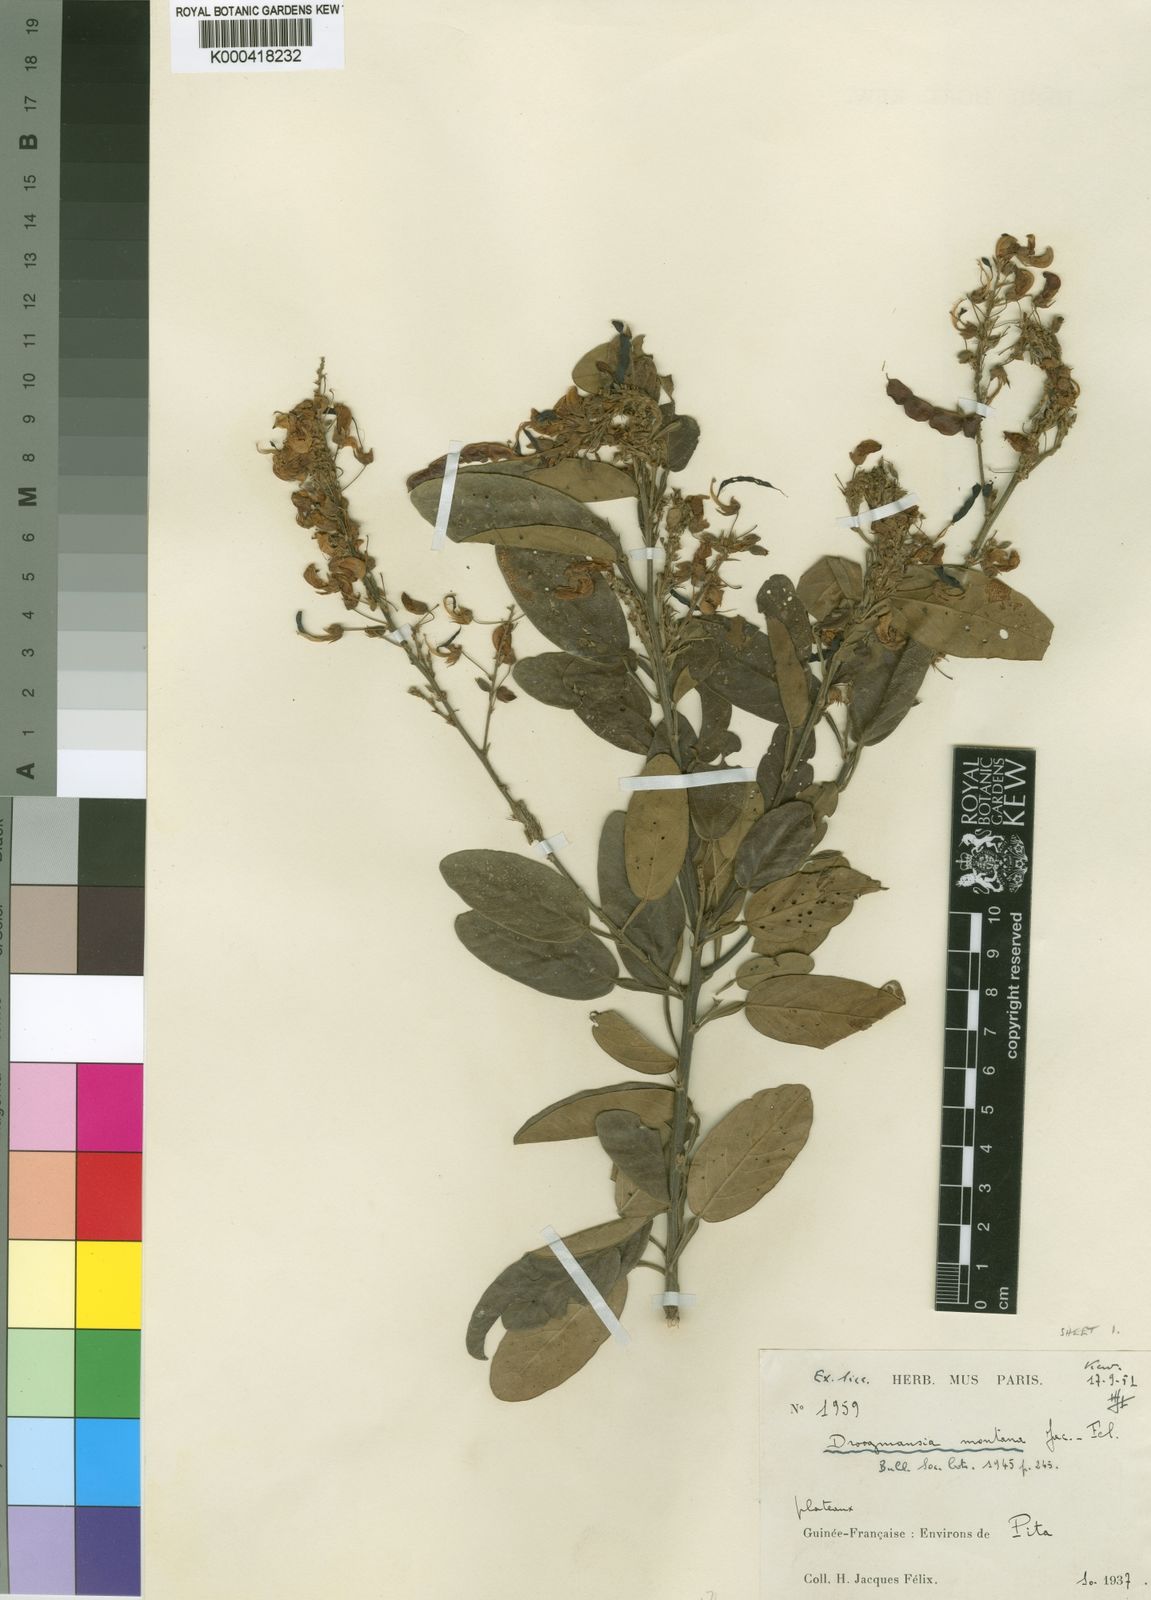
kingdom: Plantae
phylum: Tracheophyta
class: Magnoliopsida
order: Fabales
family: Fabaceae
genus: Droogmansia
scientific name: Droogmansia
